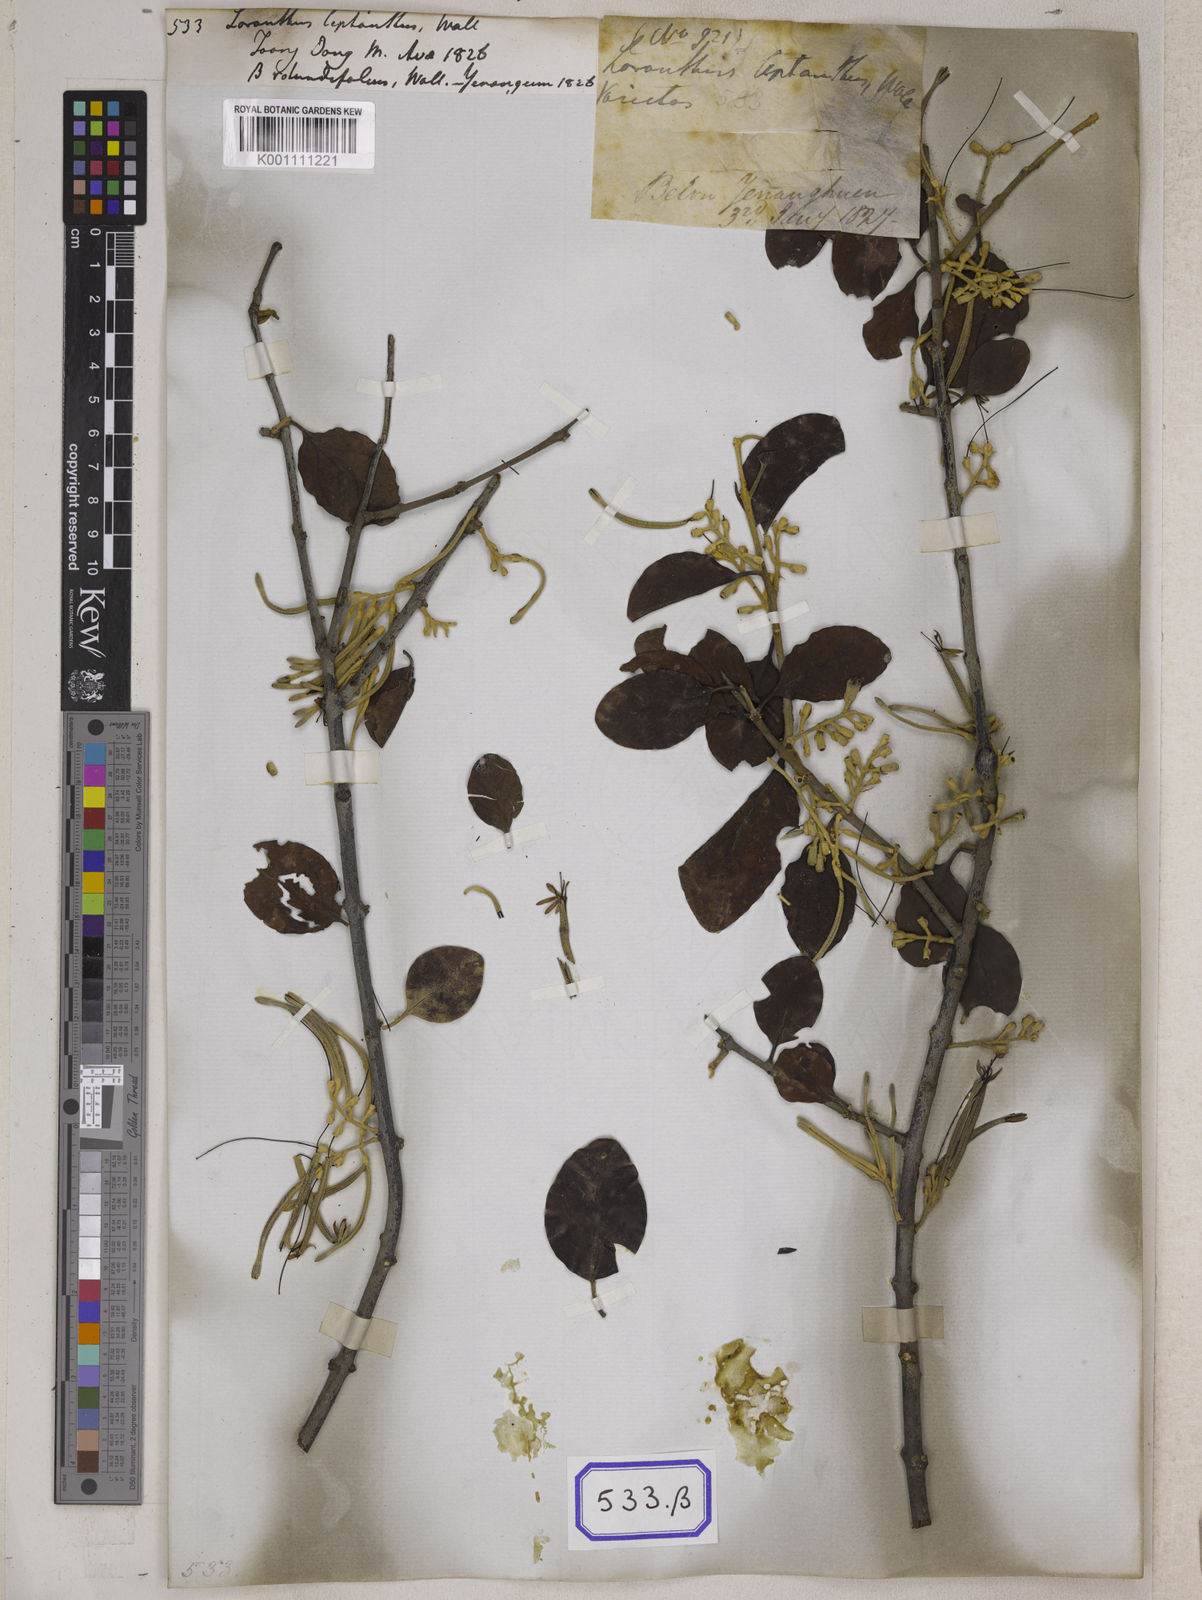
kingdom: Plantae
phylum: Tracheophyta
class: Magnoliopsida
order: Santalales
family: Loranthaceae
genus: Loranthus
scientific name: Loranthus
